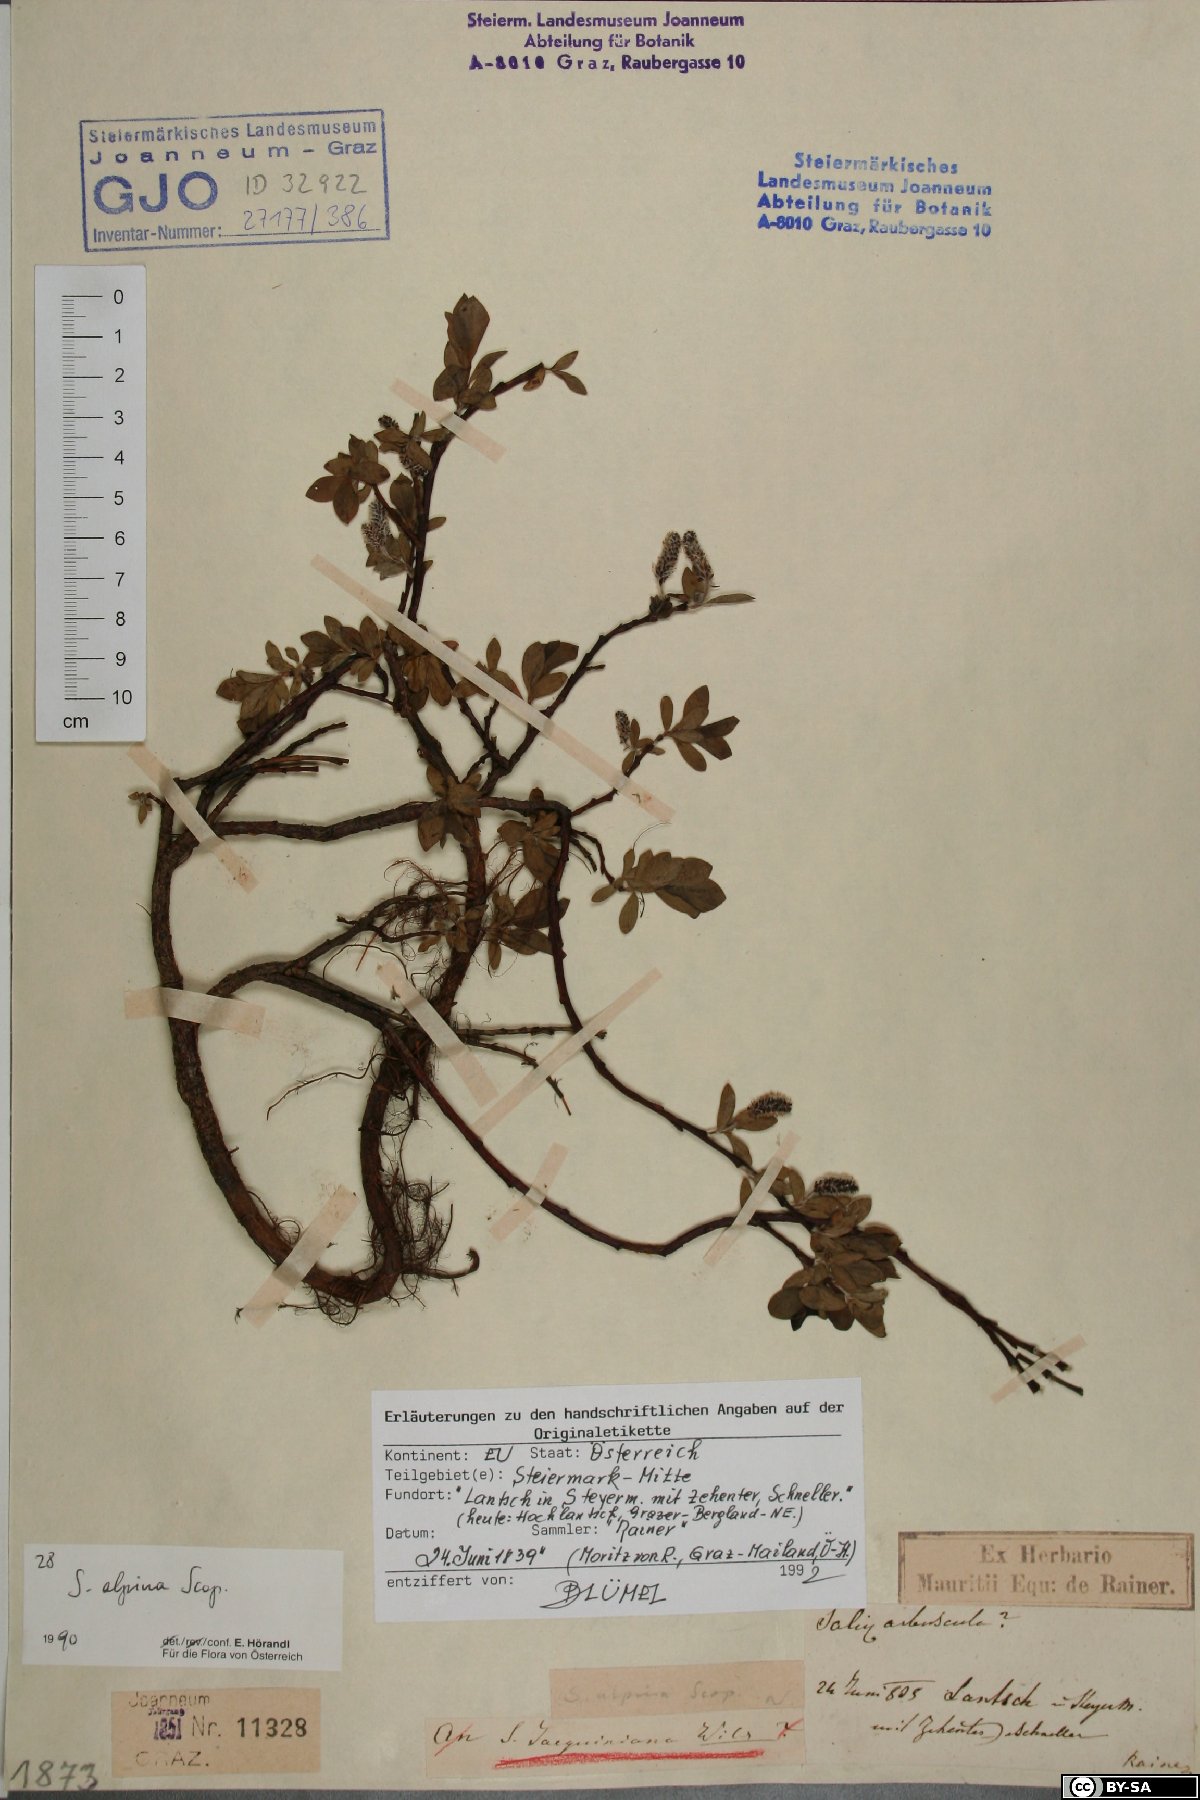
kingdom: Plantae
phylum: Tracheophyta
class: Magnoliopsida
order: Malpighiales
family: Salicaceae
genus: Salix
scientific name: Salix alpina
